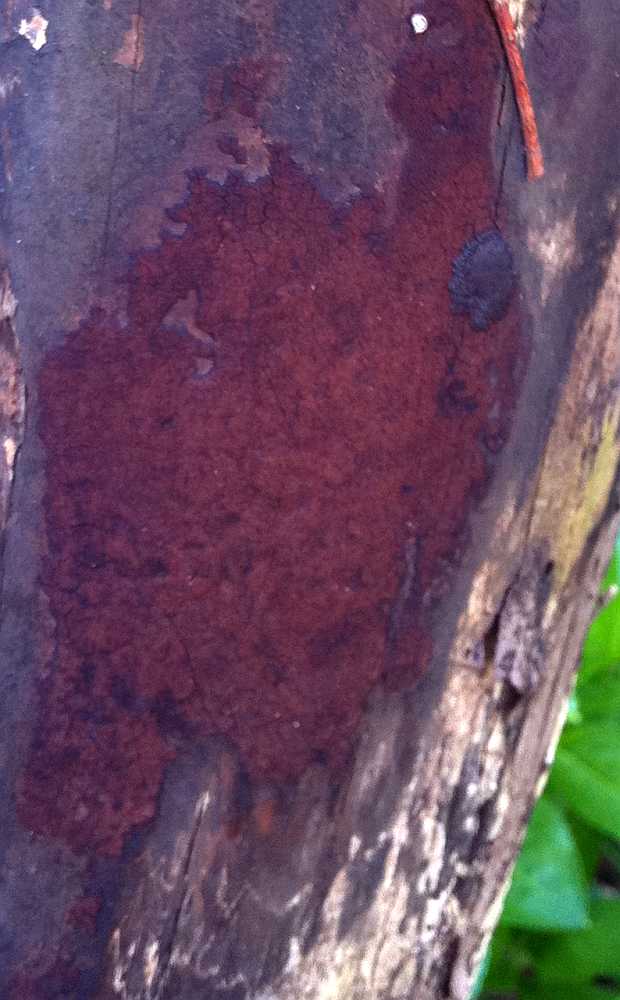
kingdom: Fungi
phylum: Ascomycota
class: Sordariomycetes
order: Xylariales
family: Hypoxylaceae
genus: Hypoxylon
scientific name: Hypoxylon macrocarpum
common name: skorpe-kulbær
